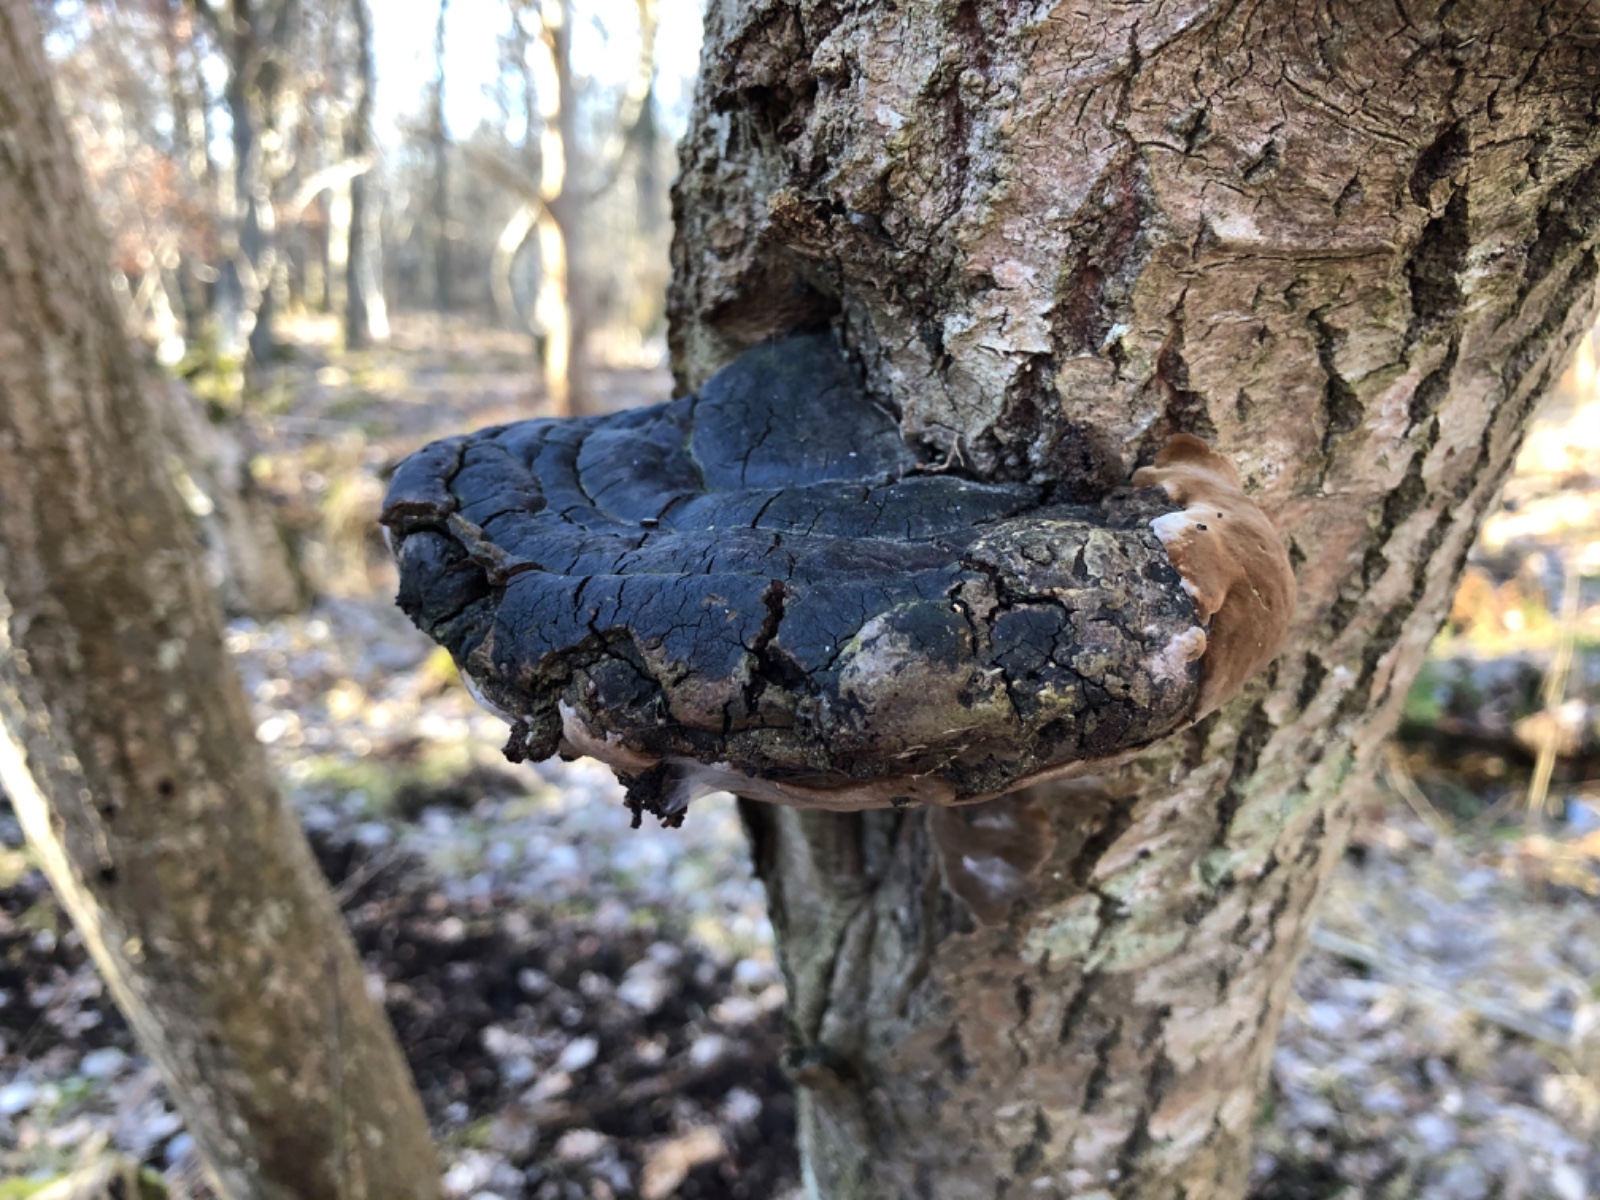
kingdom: Fungi
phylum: Basidiomycota
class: Agaricomycetes
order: Hymenochaetales
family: Hymenochaetaceae
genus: Phellinus
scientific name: Phellinus populicola
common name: poppel-ildporesvamp
